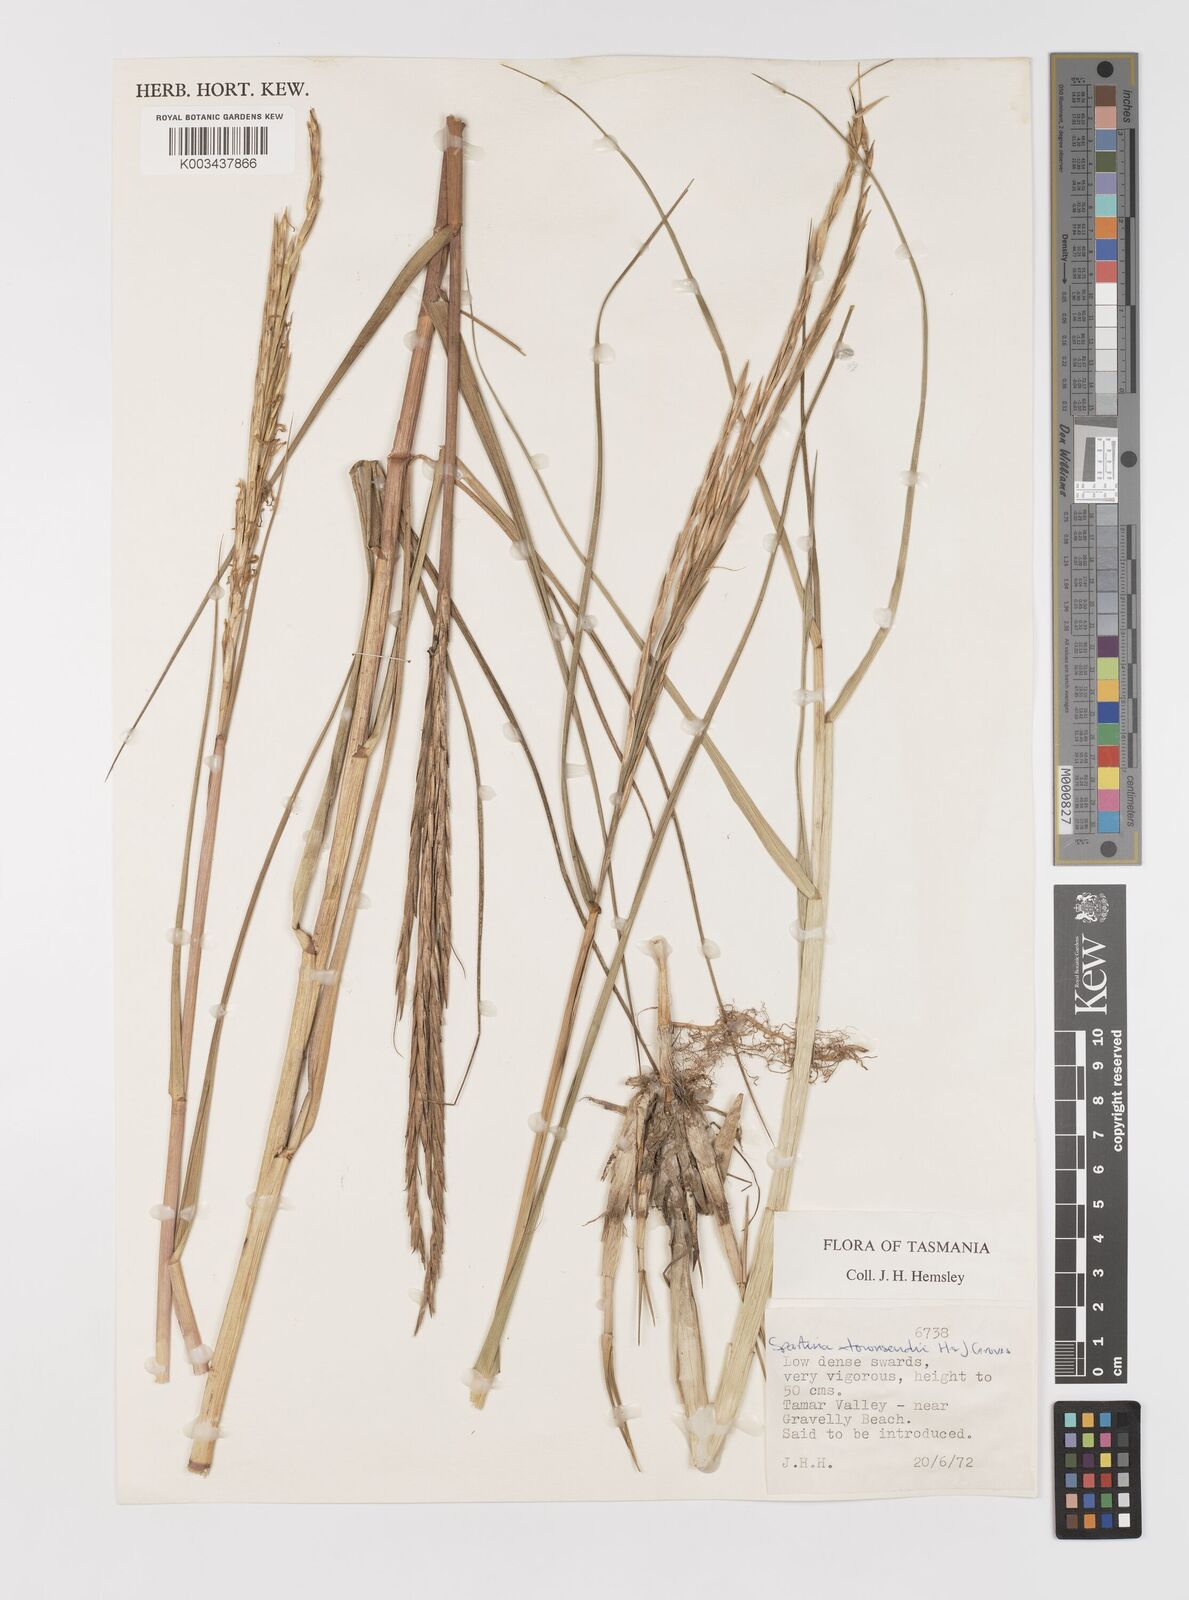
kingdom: Plantae
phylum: Tracheophyta
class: Liliopsida
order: Poales
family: Poaceae
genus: Sporobolus
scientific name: Sporobolus townsendii
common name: Townsend's cordgrass
